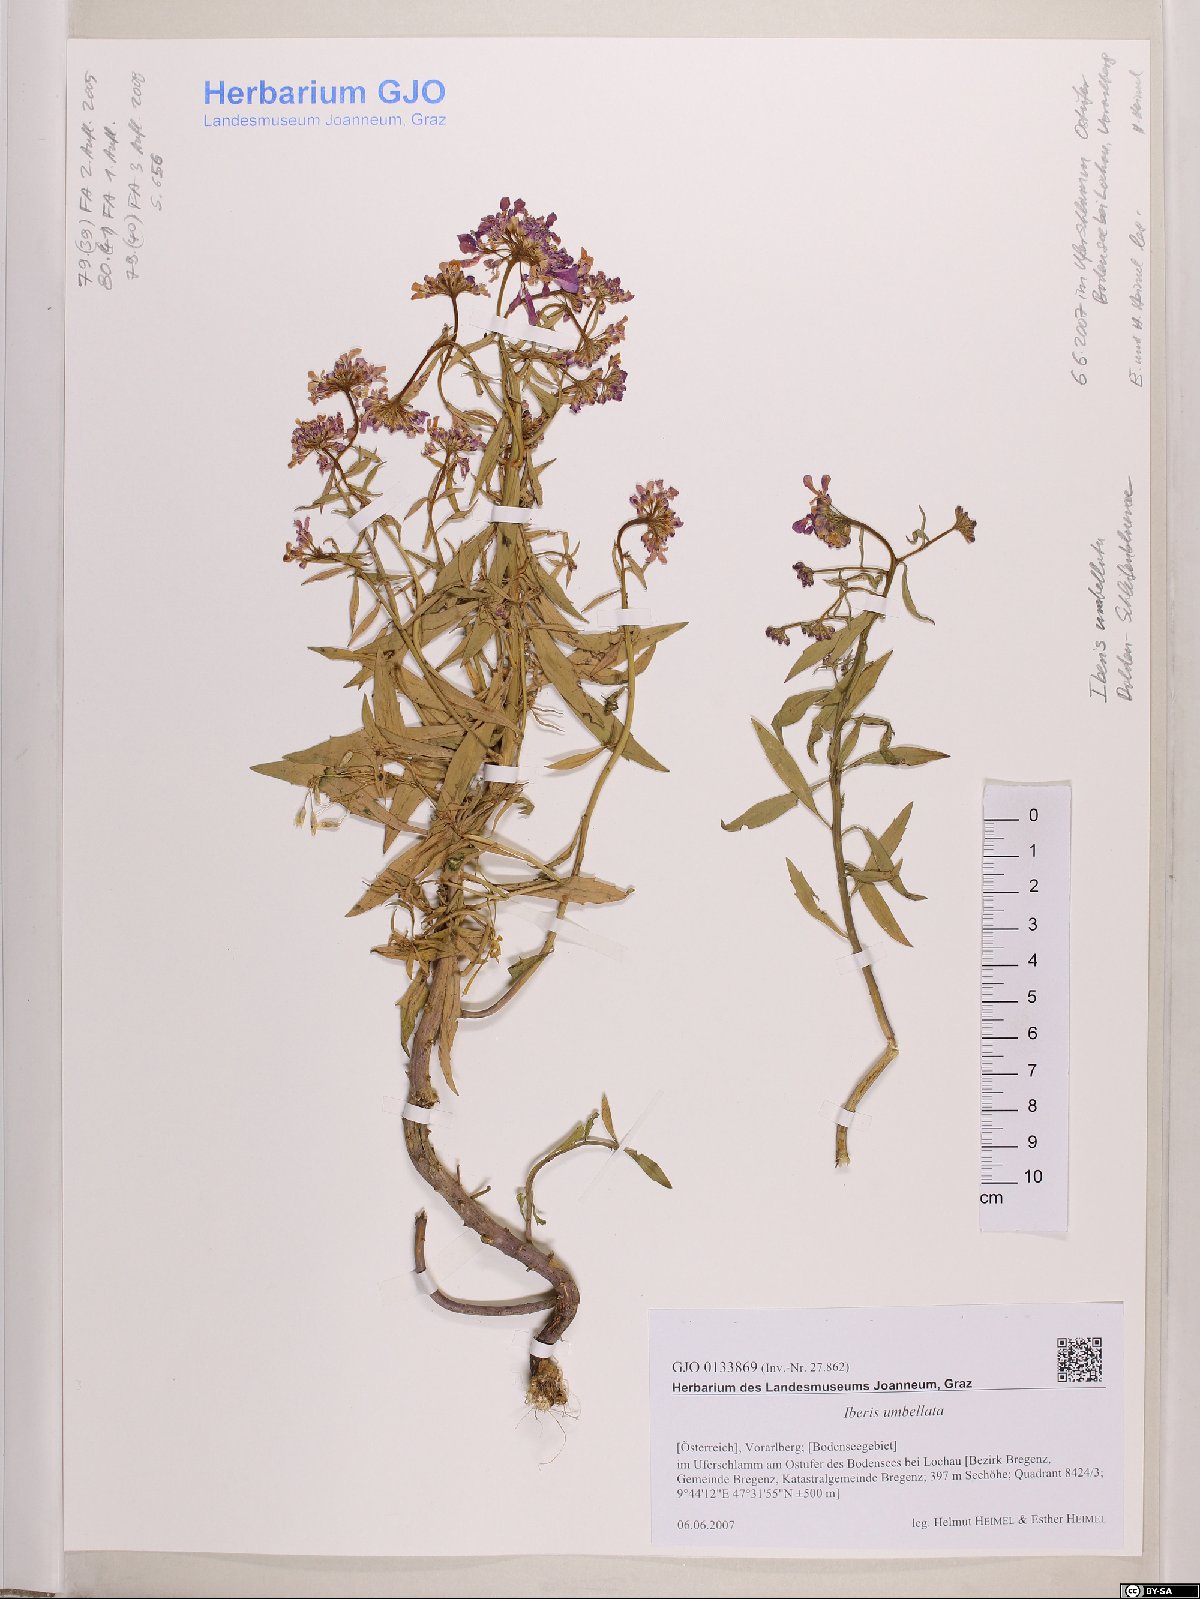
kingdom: Plantae
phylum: Tracheophyta
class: Magnoliopsida
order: Brassicales
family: Brassicaceae
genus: Iberis
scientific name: Iberis umbellata
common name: Globe candytuft
